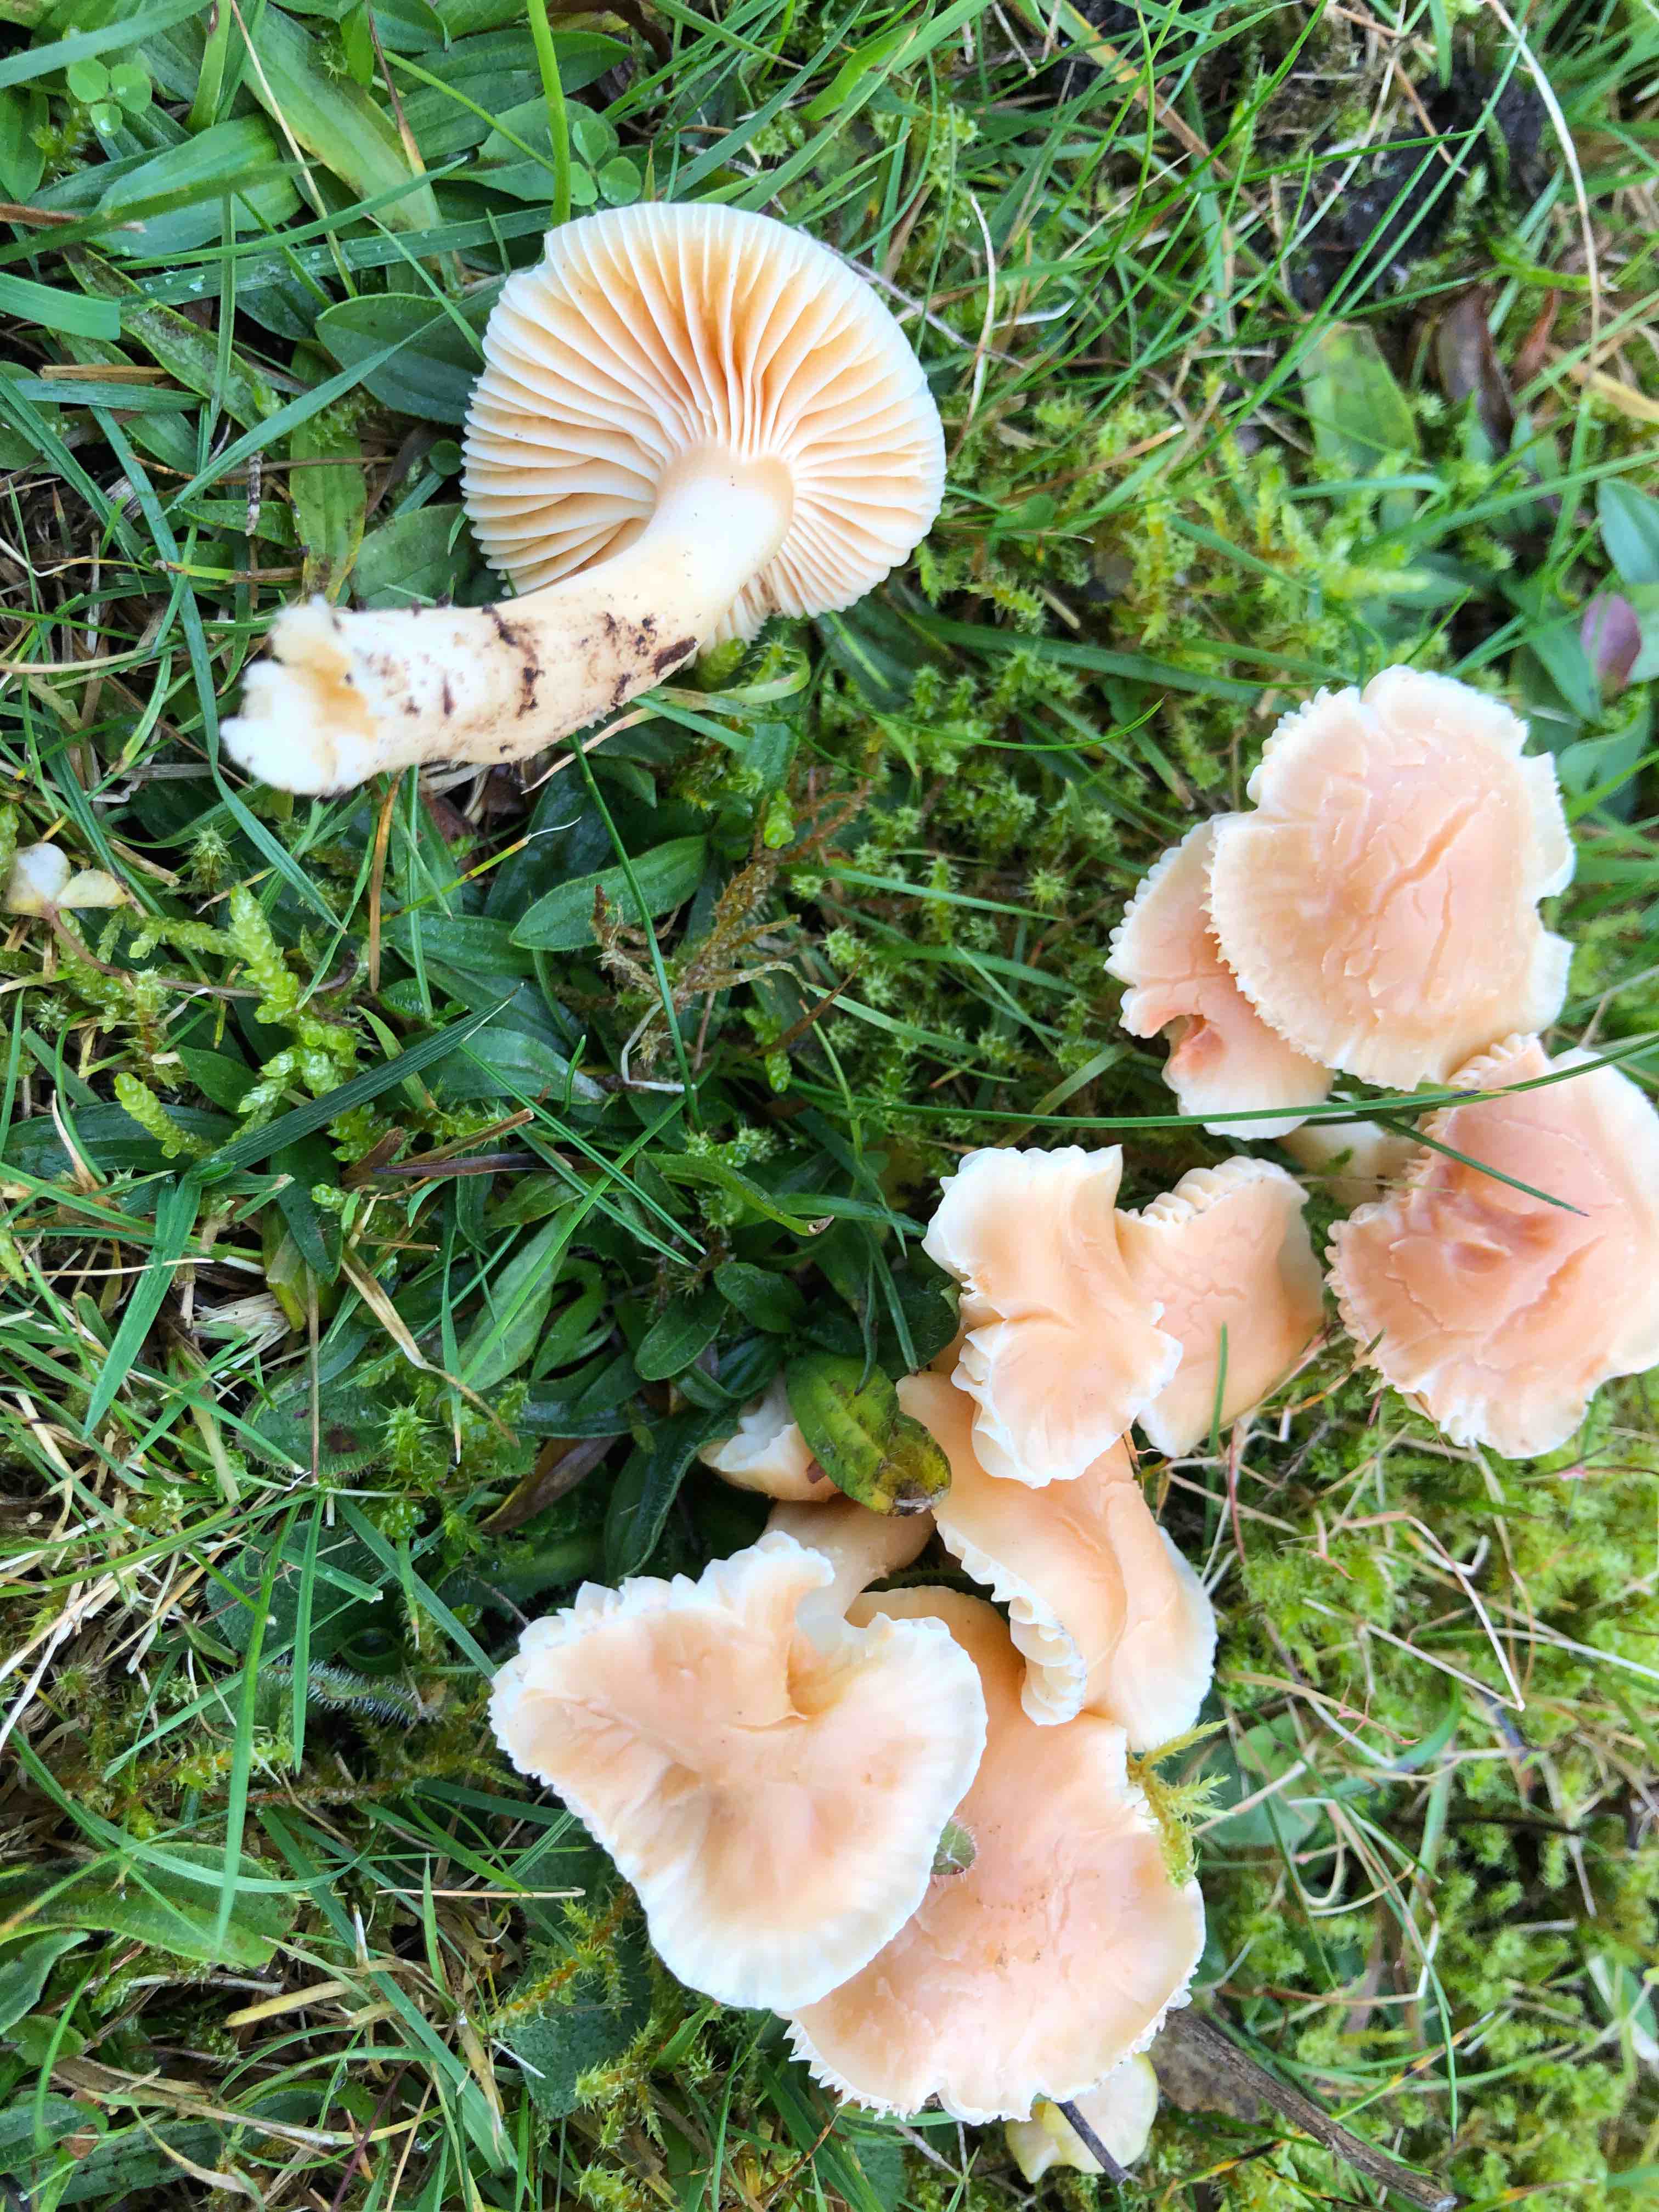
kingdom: Fungi
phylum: Basidiomycota
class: Agaricomycetes
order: Agaricales
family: Hygrophoraceae
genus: Cuphophyllus
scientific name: Cuphophyllus pratensis
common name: eng-vokshat
